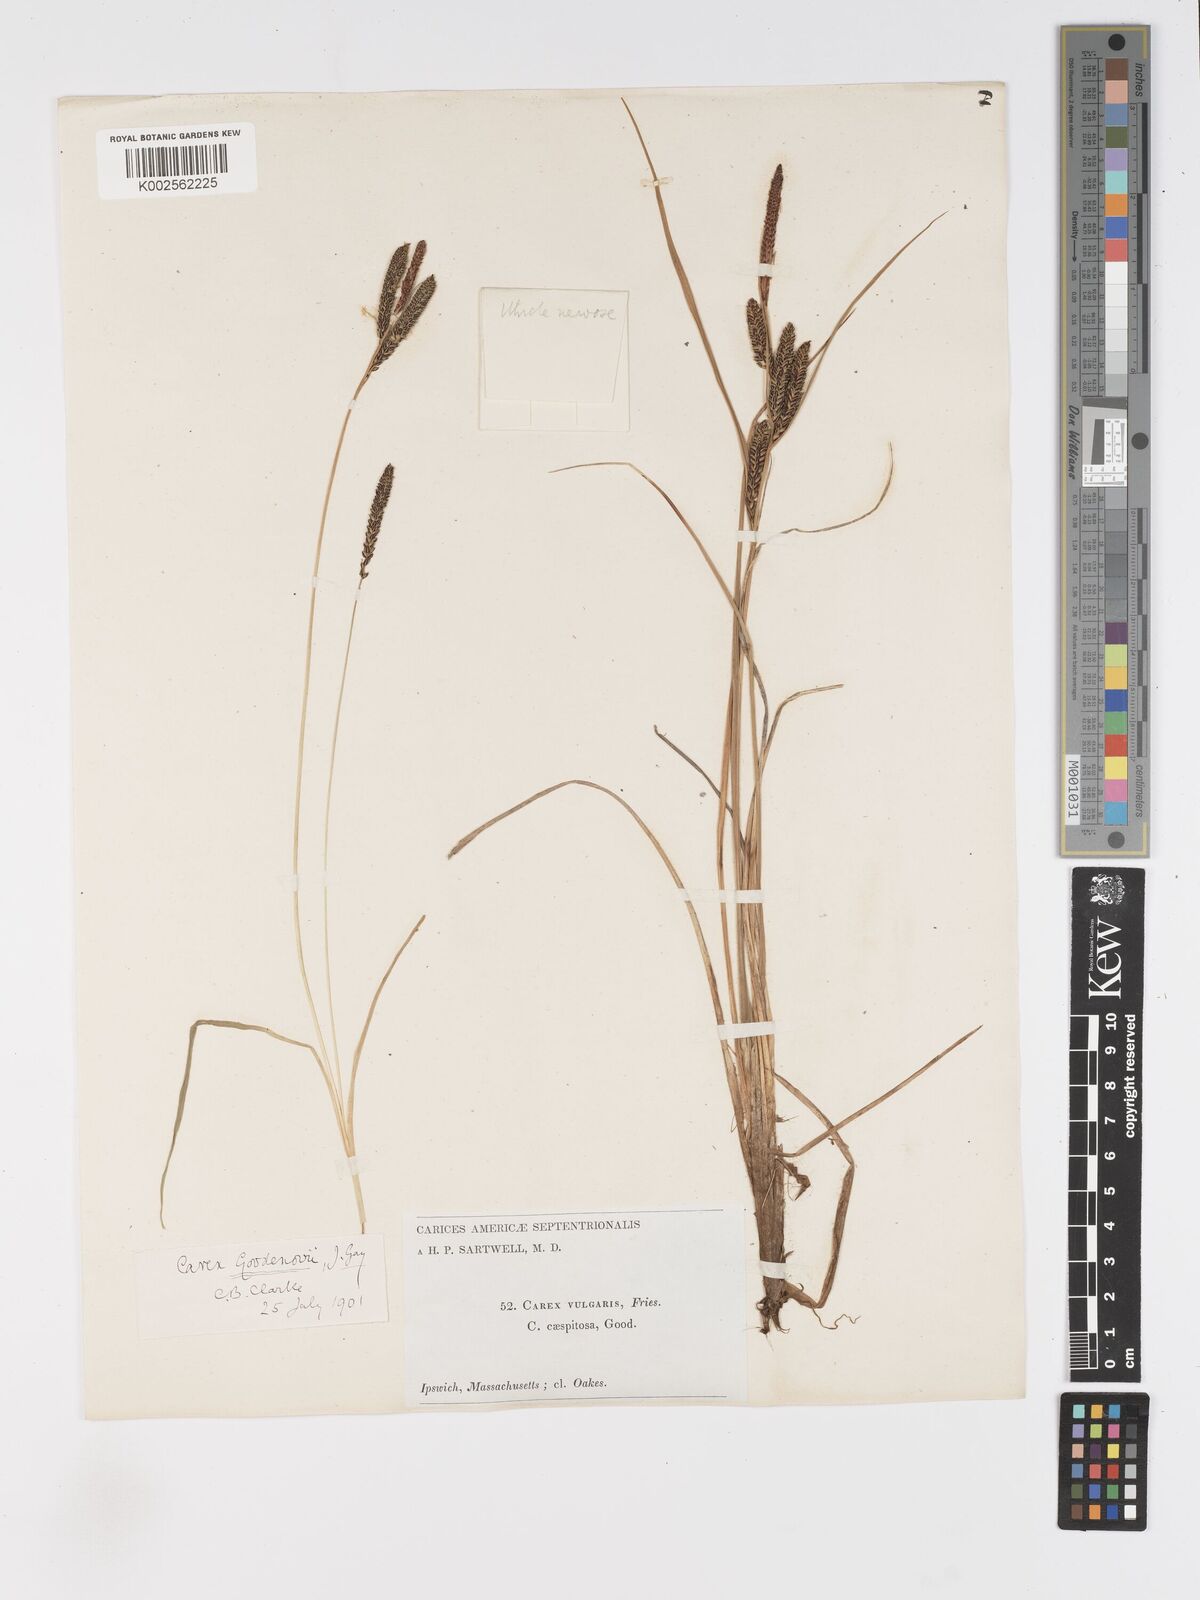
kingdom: Plantae
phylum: Tracheophyta
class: Liliopsida
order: Poales
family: Cyperaceae
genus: Carex
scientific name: Carex nigra
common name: Common sedge
